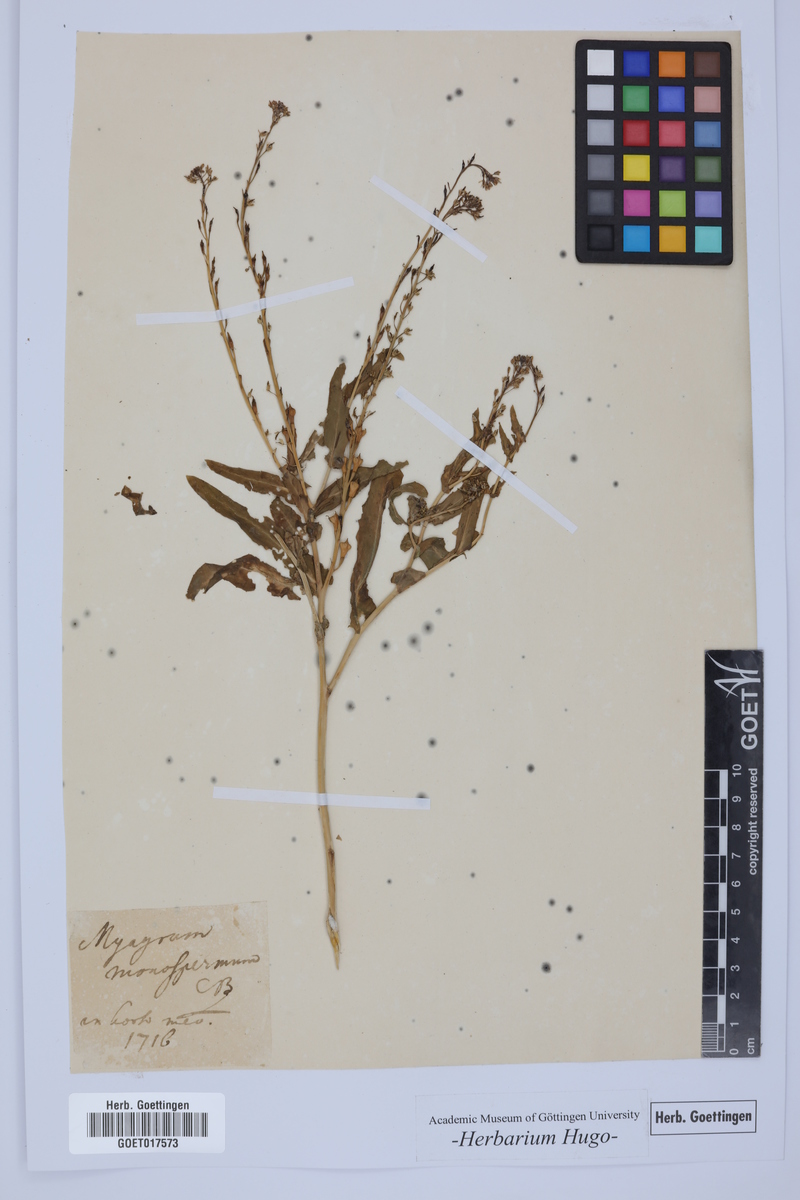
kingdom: Plantae
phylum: Tracheophyta
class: Magnoliopsida
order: Brassicales
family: Brassicaceae
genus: Myagrum
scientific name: Myagrum
